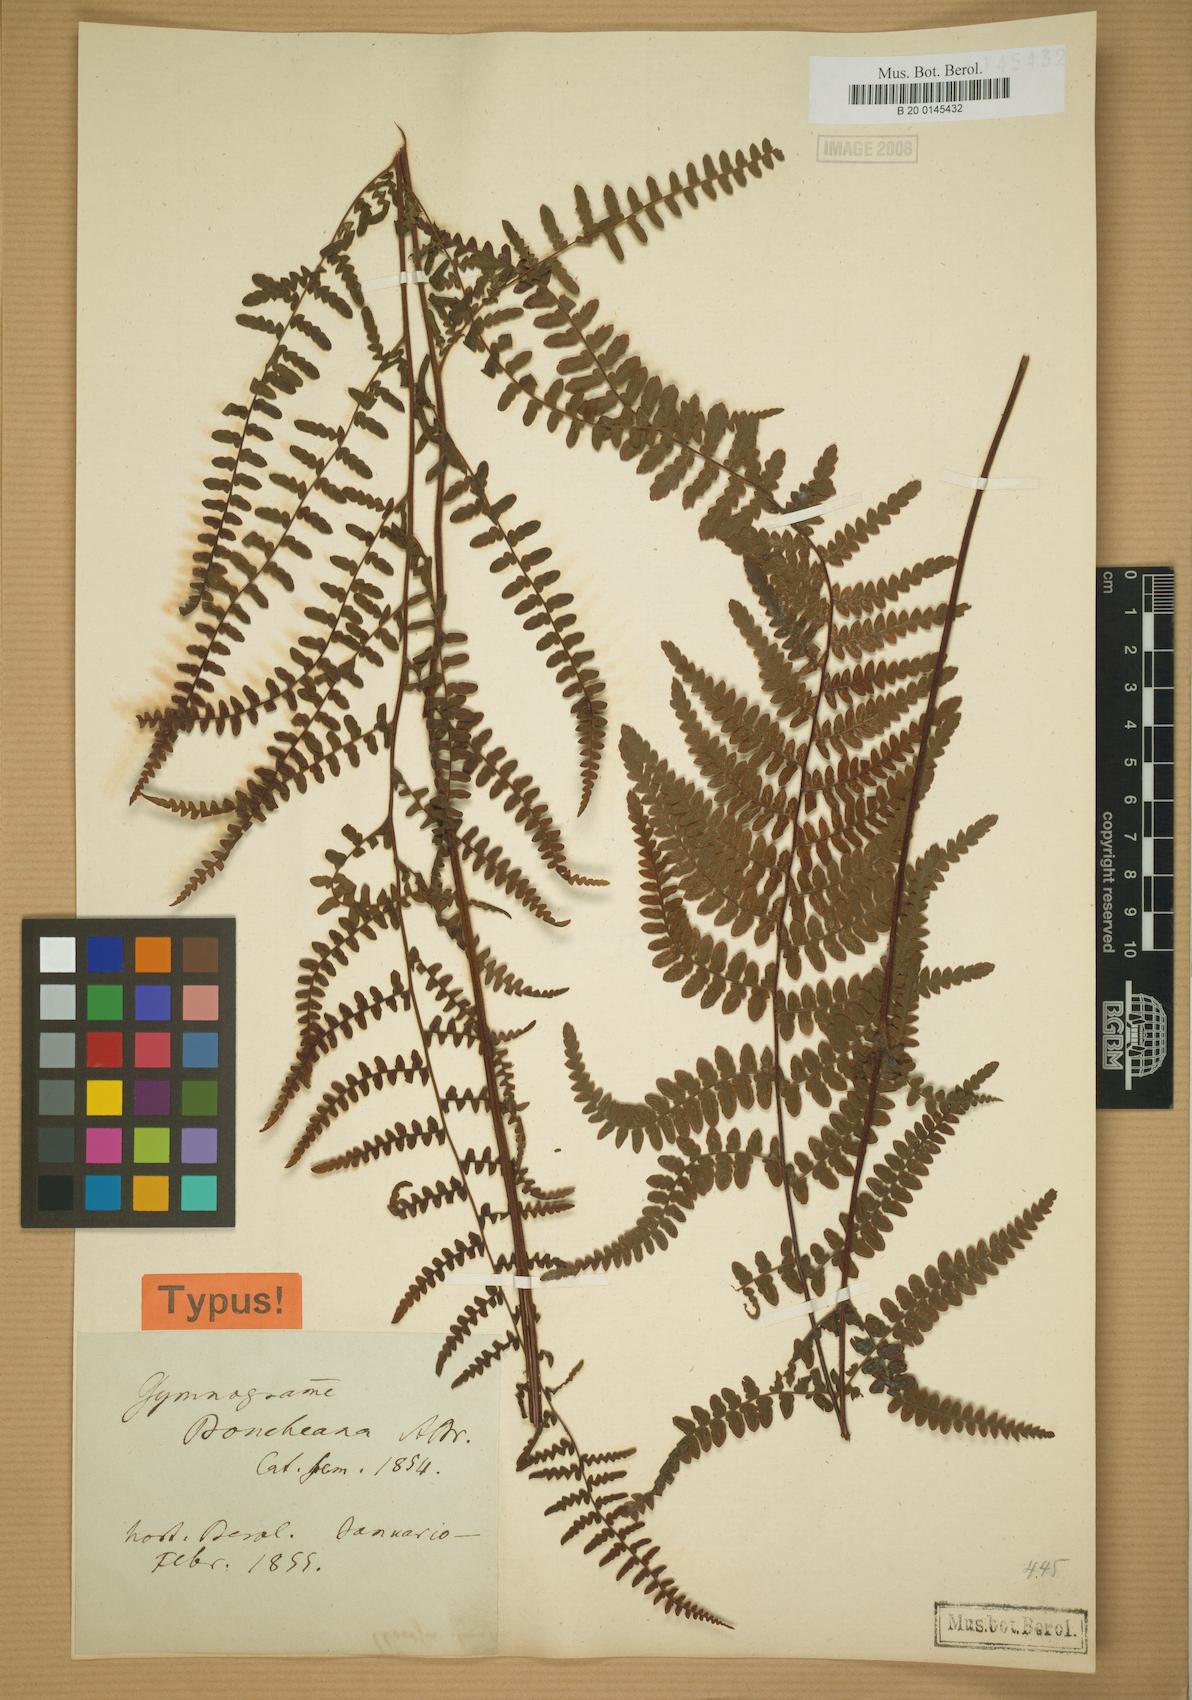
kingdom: Plantae
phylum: Tracheophyta
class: Polypodiopsida
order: Polypodiales
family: Adiantaceae
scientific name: Adiantaceae
